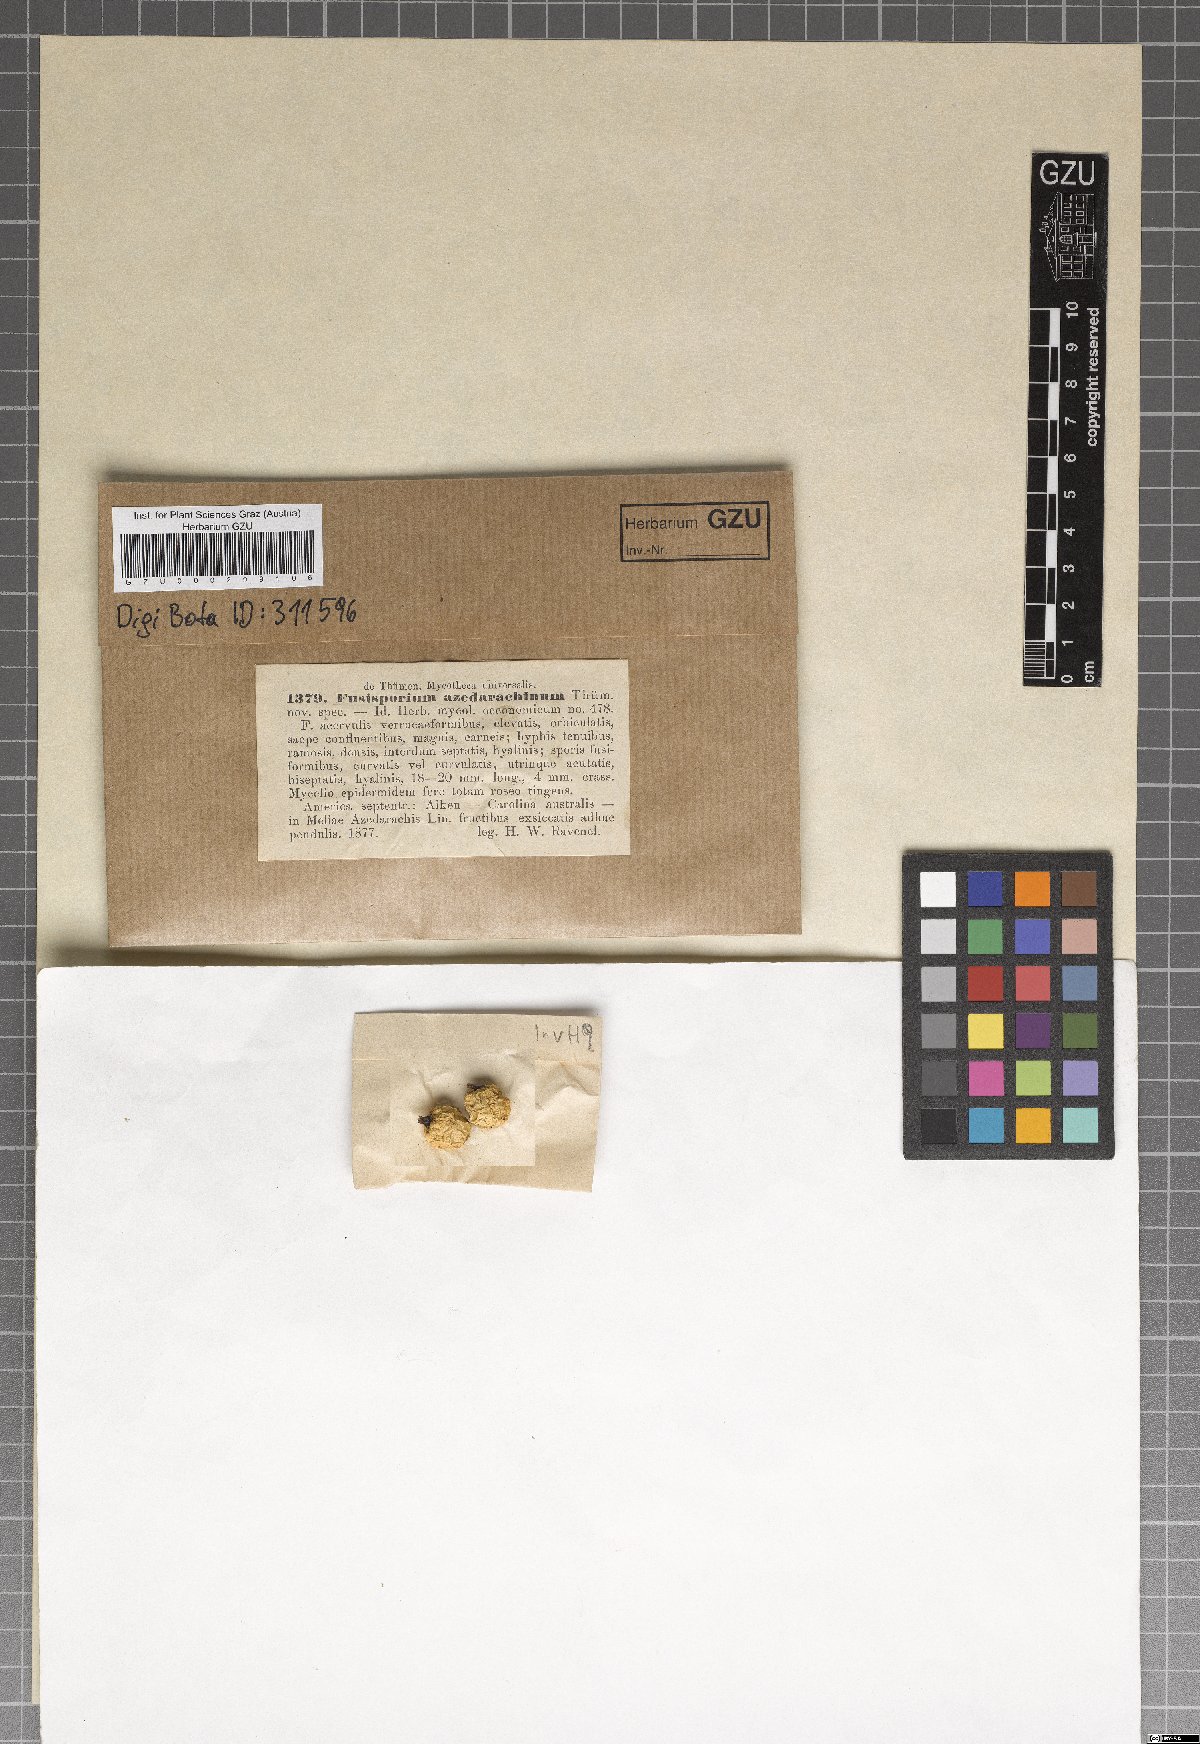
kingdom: Fungi
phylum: Ascomycota
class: Sordariomycetes
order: Hypocreales
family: Nectriaceae
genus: Fusisporium
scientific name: Fusisporium
